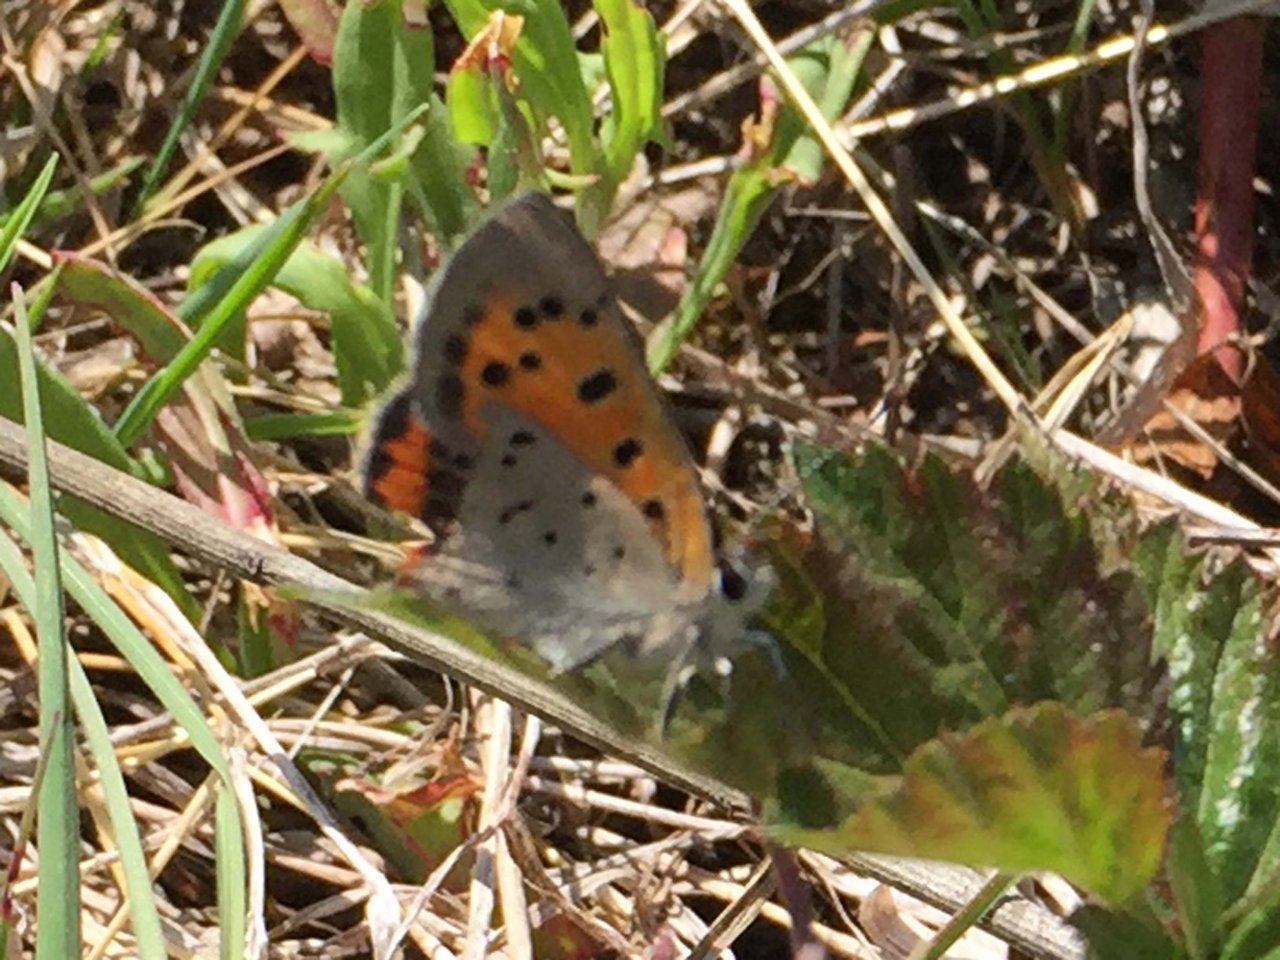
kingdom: Animalia
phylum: Arthropoda
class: Insecta
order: Lepidoptera
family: Lycaenidae
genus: Lycaena
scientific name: Lycaena phlaeas
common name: American Copper
